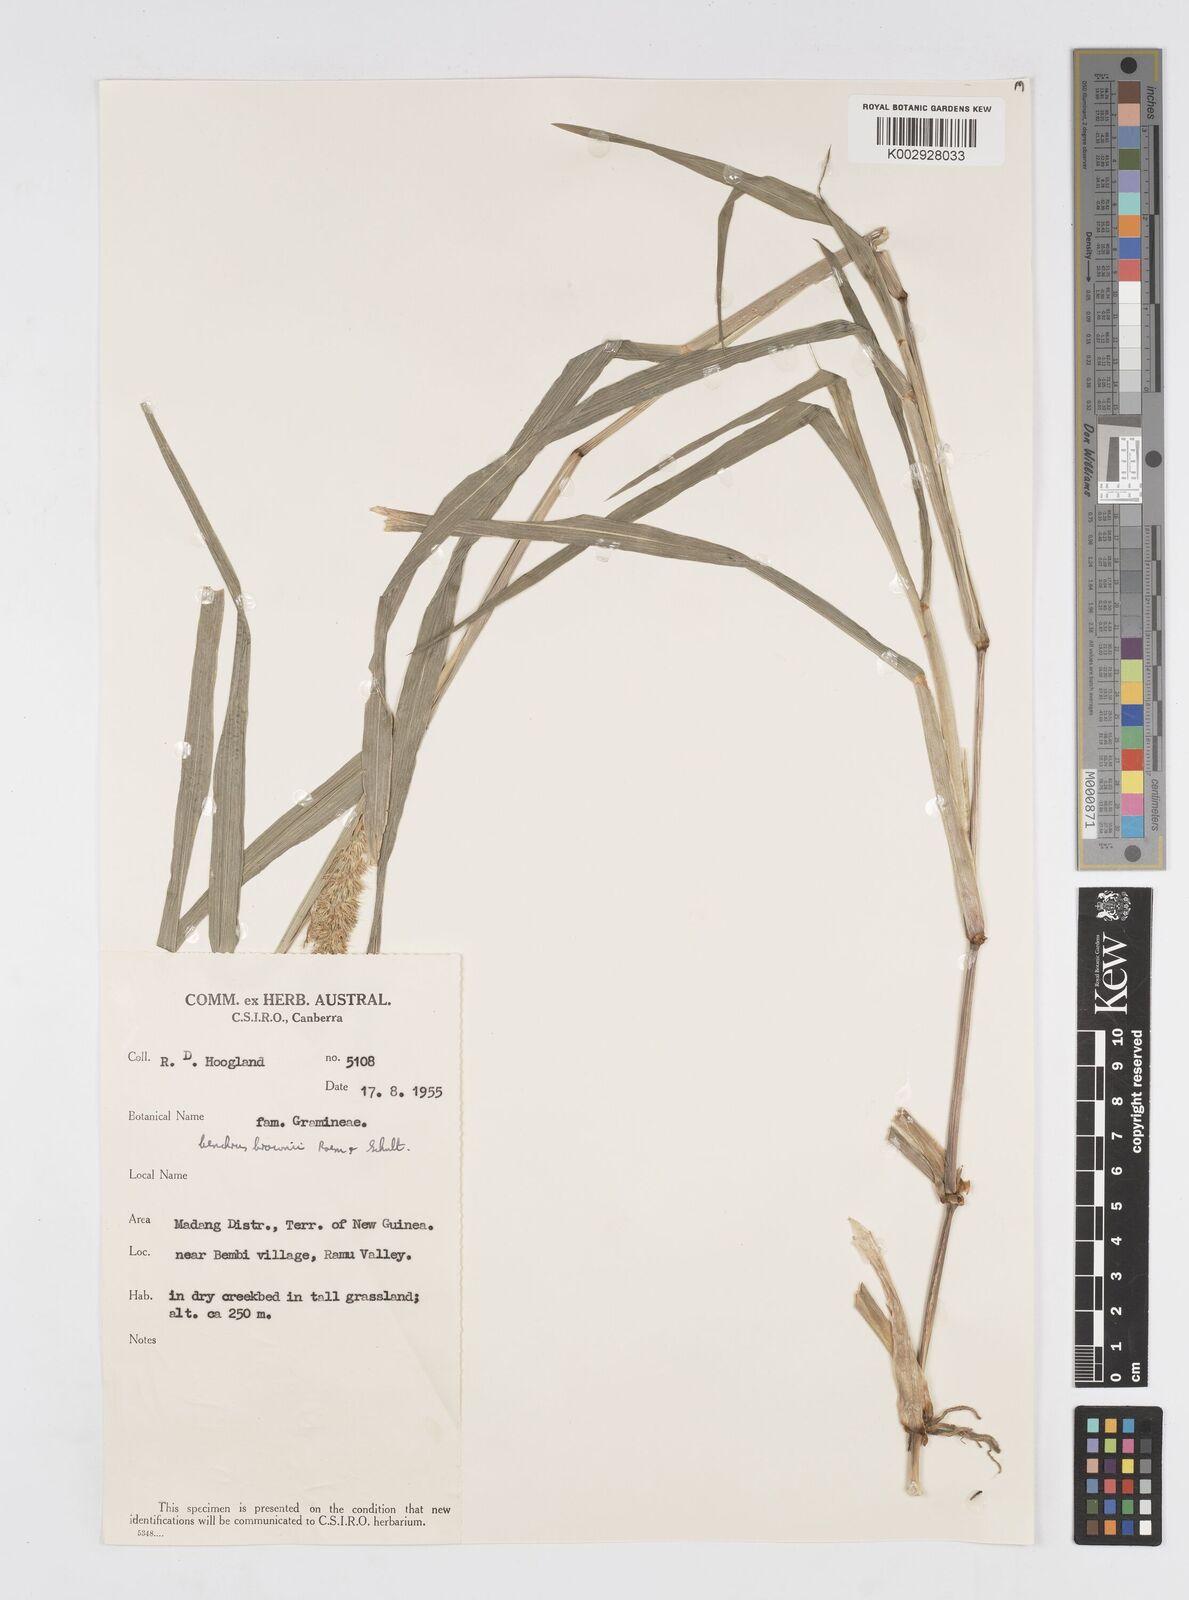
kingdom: Plantae
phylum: Tracheophyta
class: Liliopsida
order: Poales
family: Poaceae
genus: Cenchrus
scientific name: Cenchrus brownii
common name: Slim-bristle sandbur
